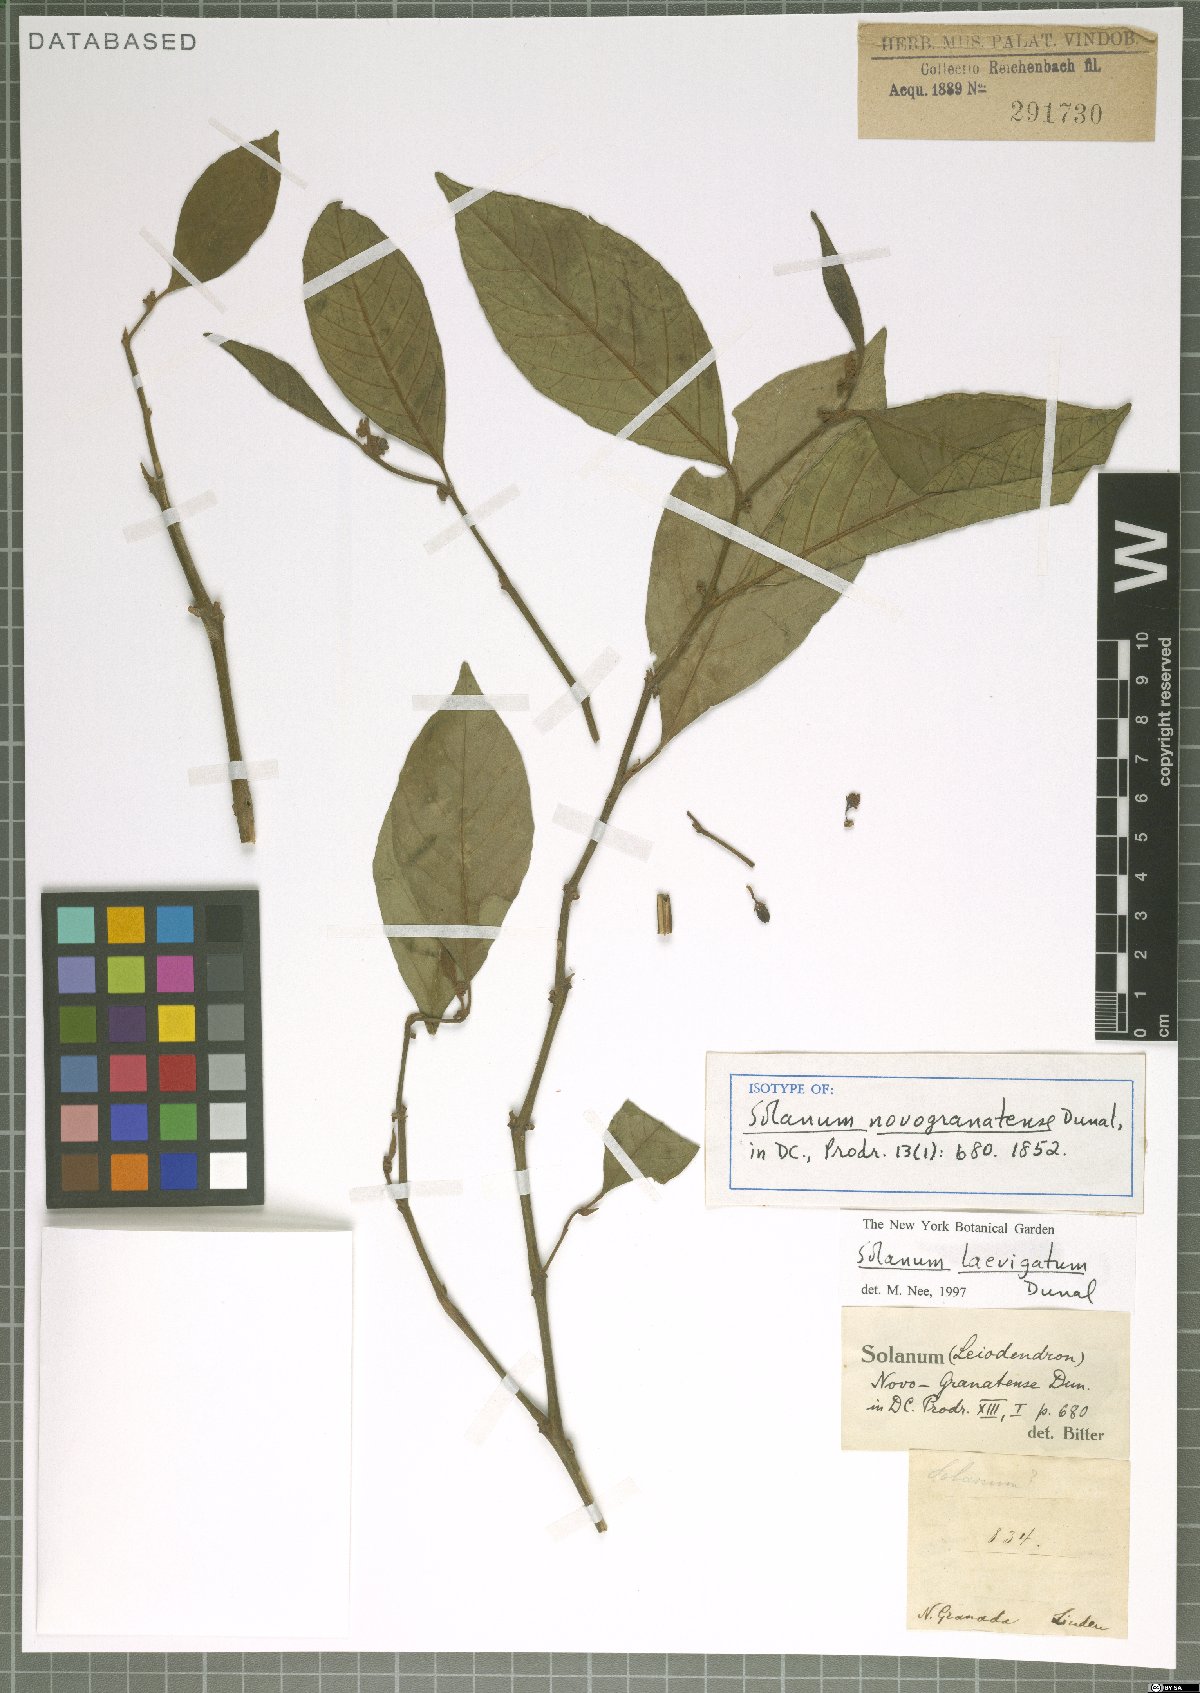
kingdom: Plantae
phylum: Tracheophyta
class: Magnoliopsida
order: Solanales
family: Solanaceae
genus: Solanum
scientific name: Solanum laevigatum
